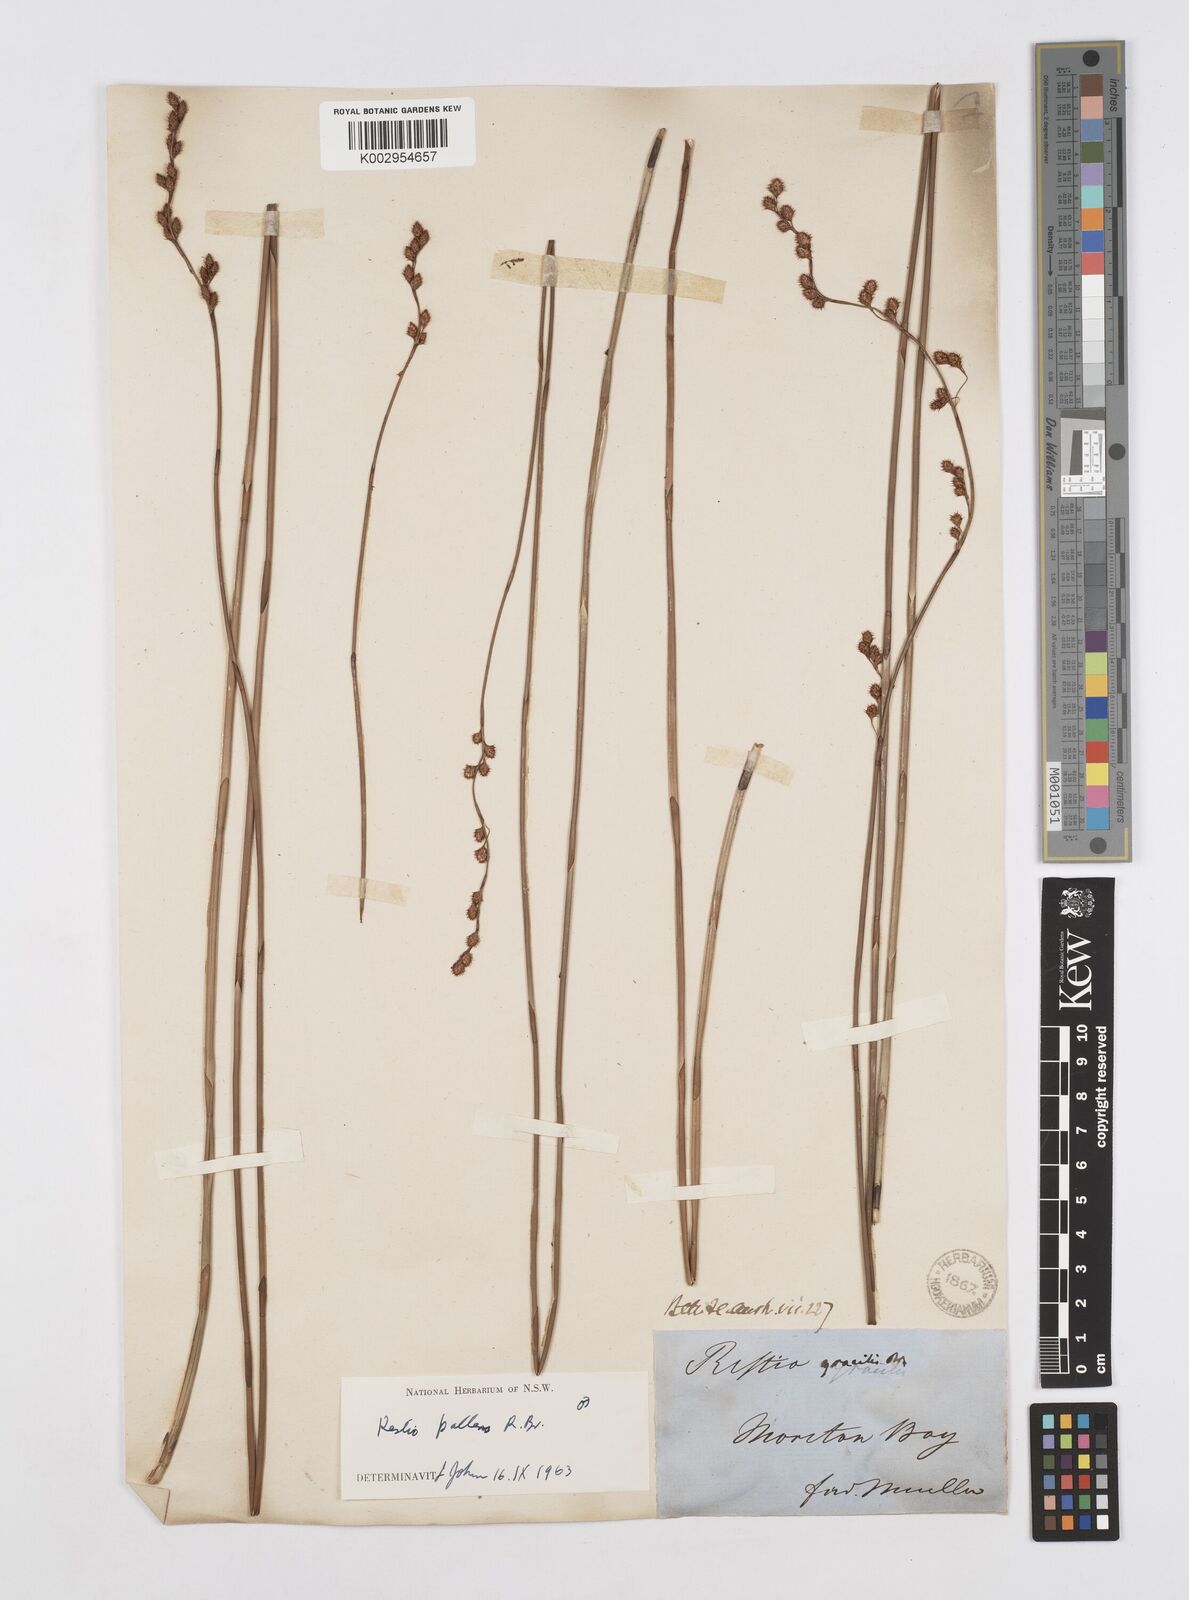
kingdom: Plantae
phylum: Tracheophyta
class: Liliopsida
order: Poales
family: Restionaceae
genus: Baloskion
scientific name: Baloskion pallens
